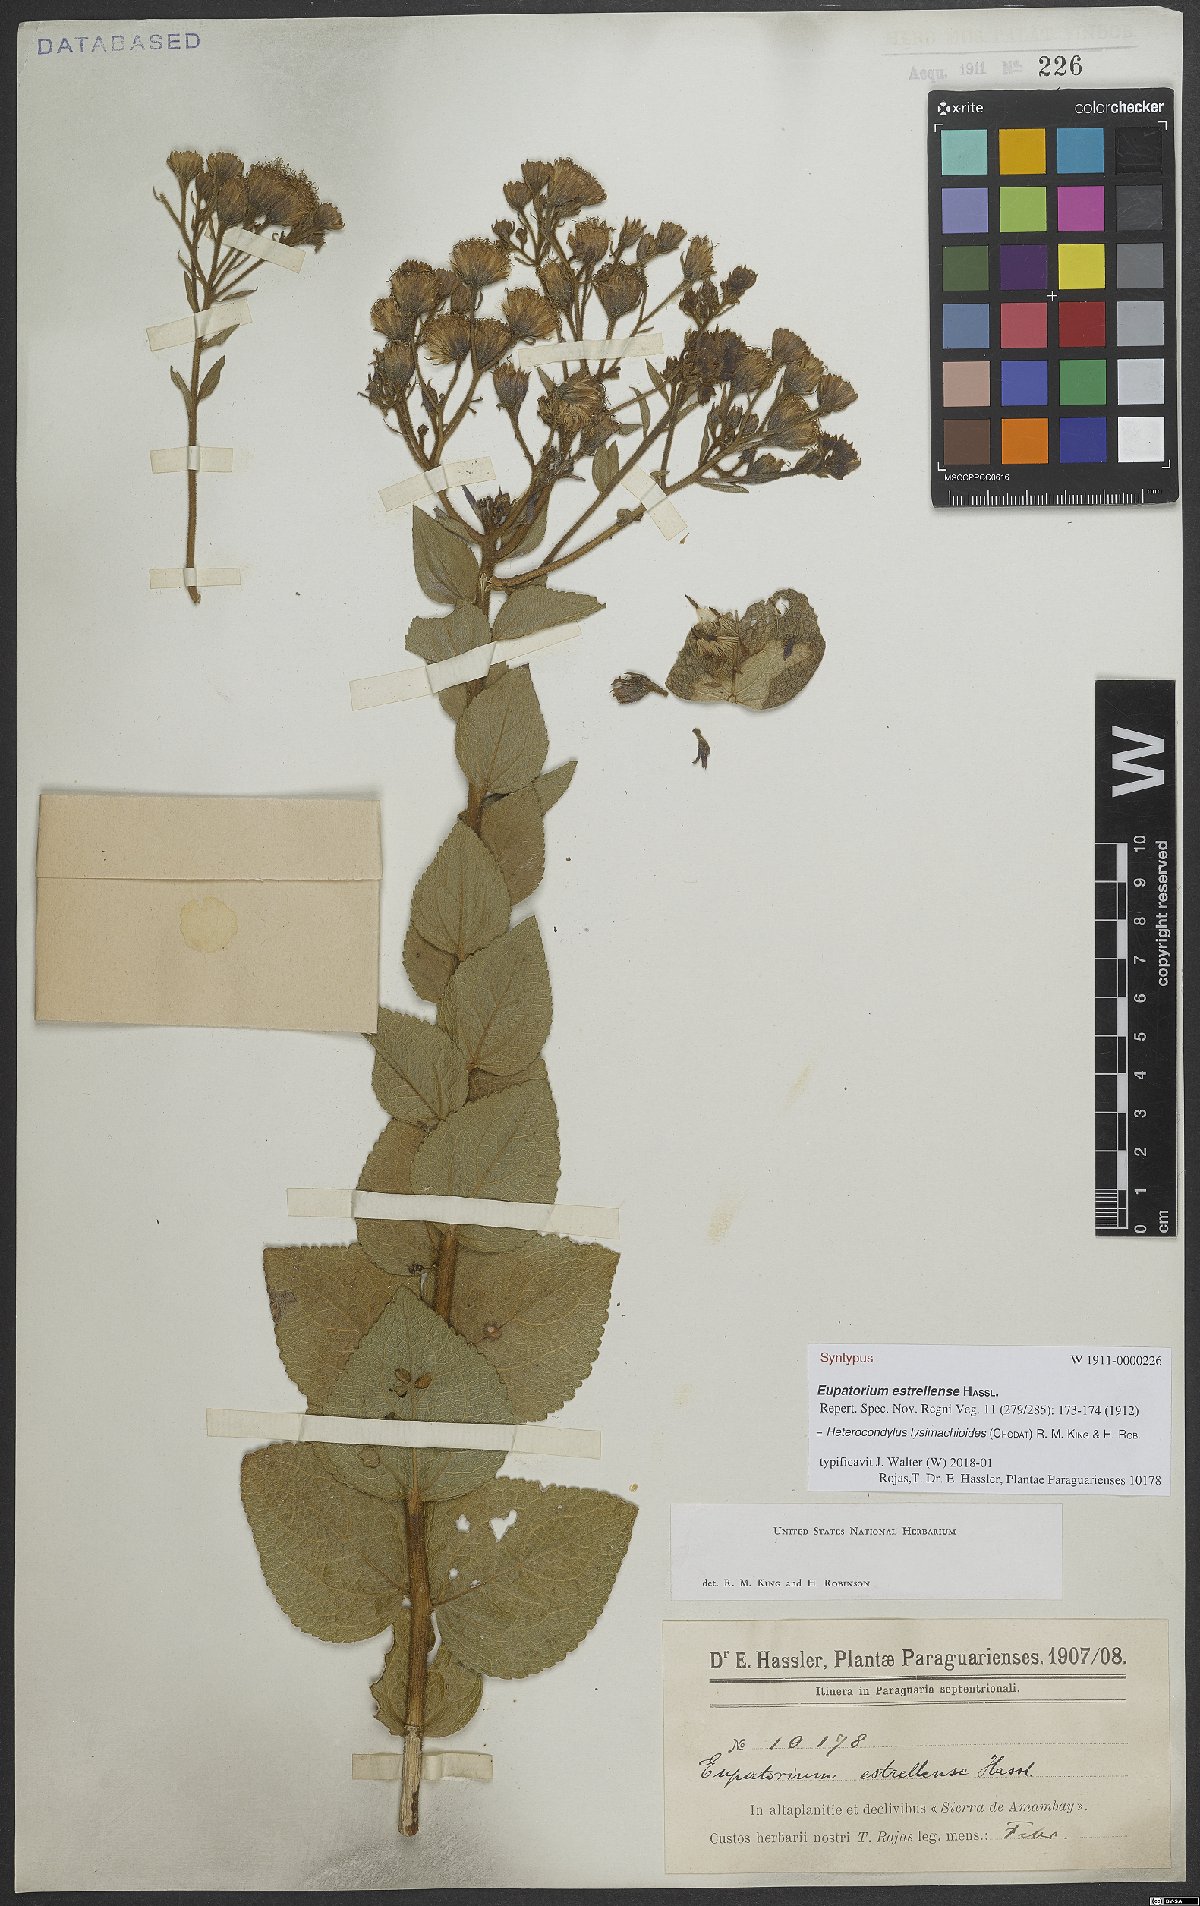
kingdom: Plantae
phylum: Tracheophyta
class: Magnoliopsida
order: Asterales
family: Asteraceae
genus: Heterocondylus
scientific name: Heterocondylus lysimachioides
